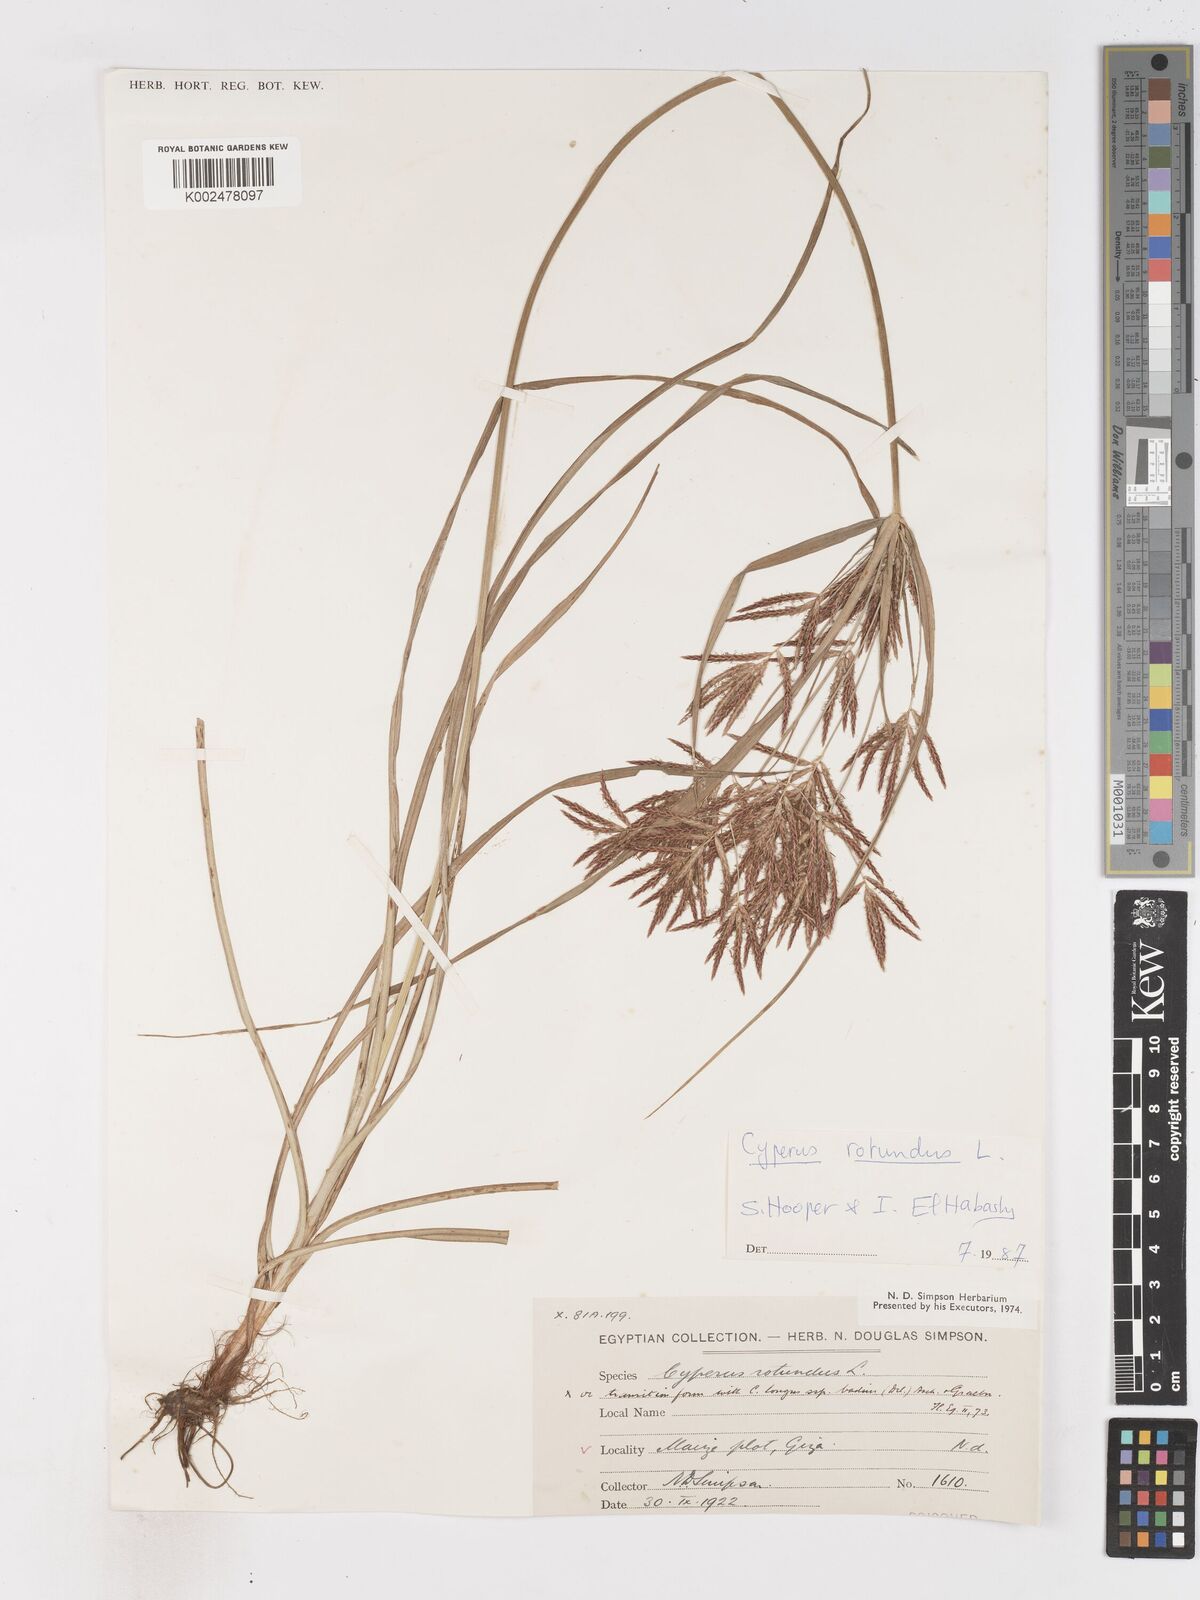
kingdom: Plantae
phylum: Tracheophyta
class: Liliopsida
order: Poales
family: Cyperaceae
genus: Cyperus
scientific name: Cyperus rotundus
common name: Nutgrass
